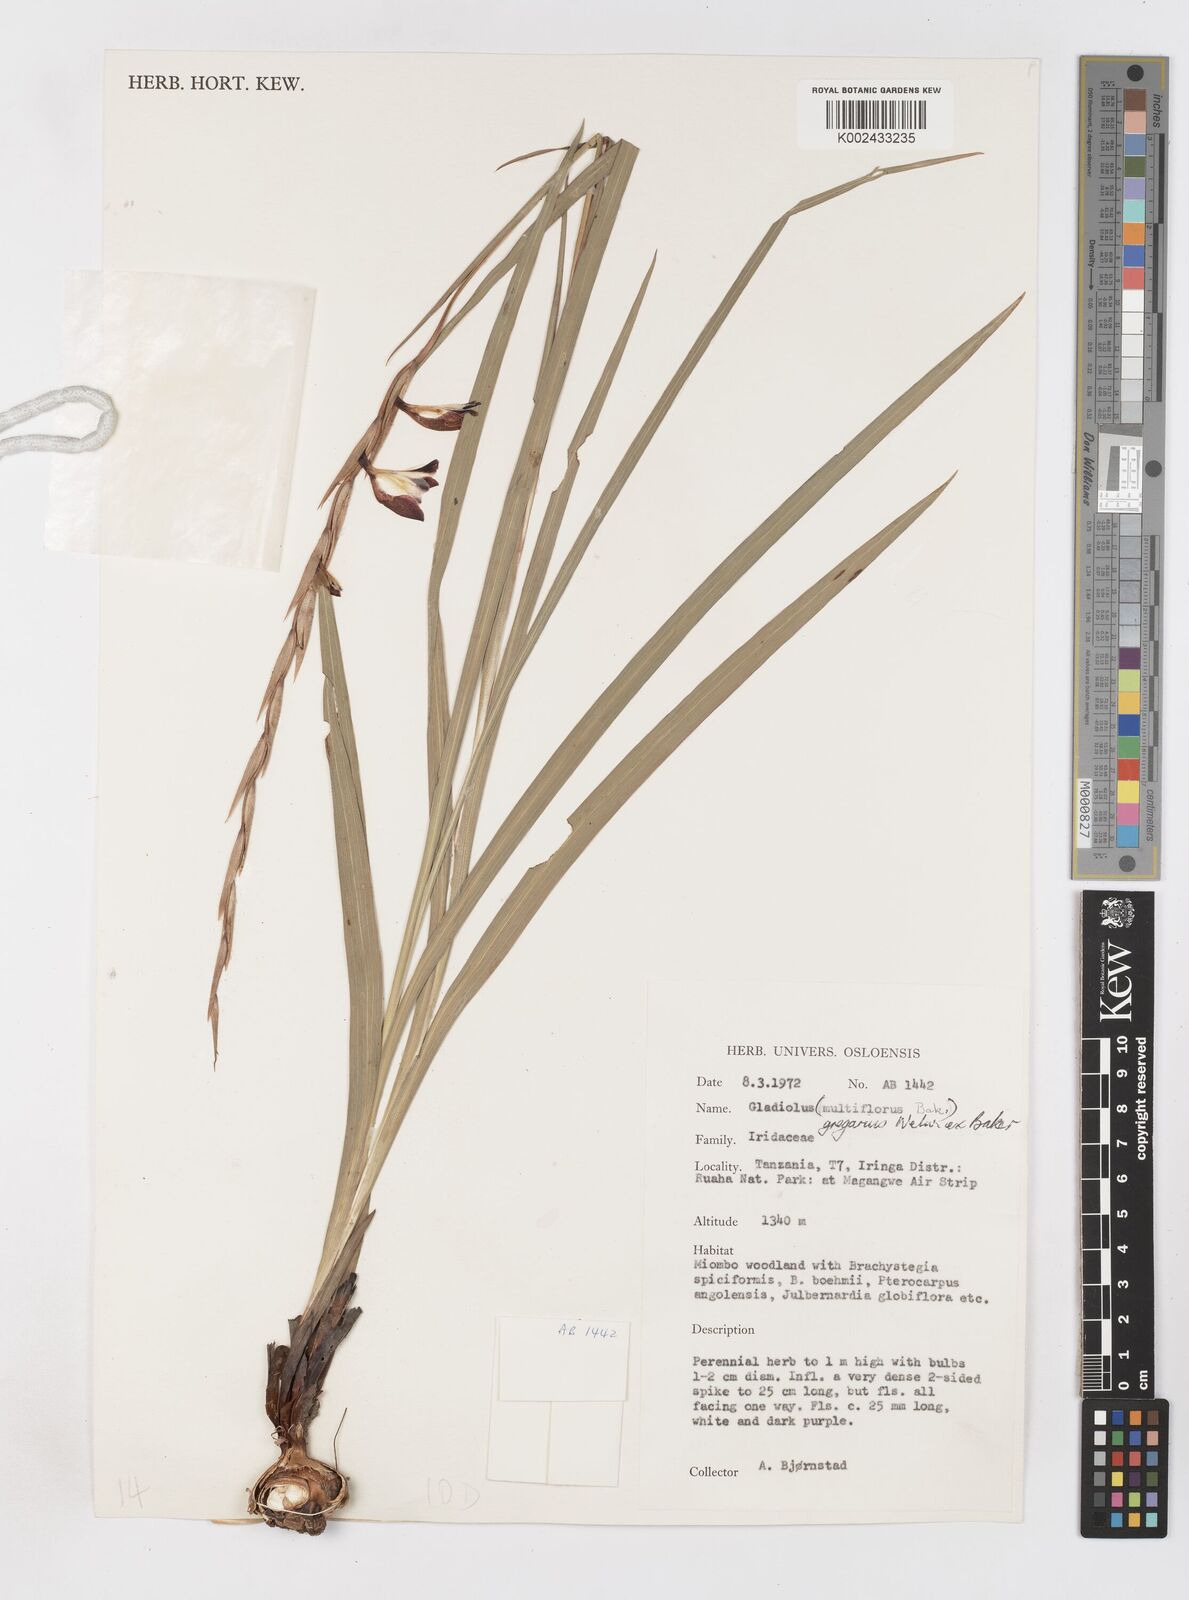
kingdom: Plantae
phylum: Tracheophyta
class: Liliopsida
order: Asparagales
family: Iridaceae
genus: Gladiolus
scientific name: Gladiolus gregarius
